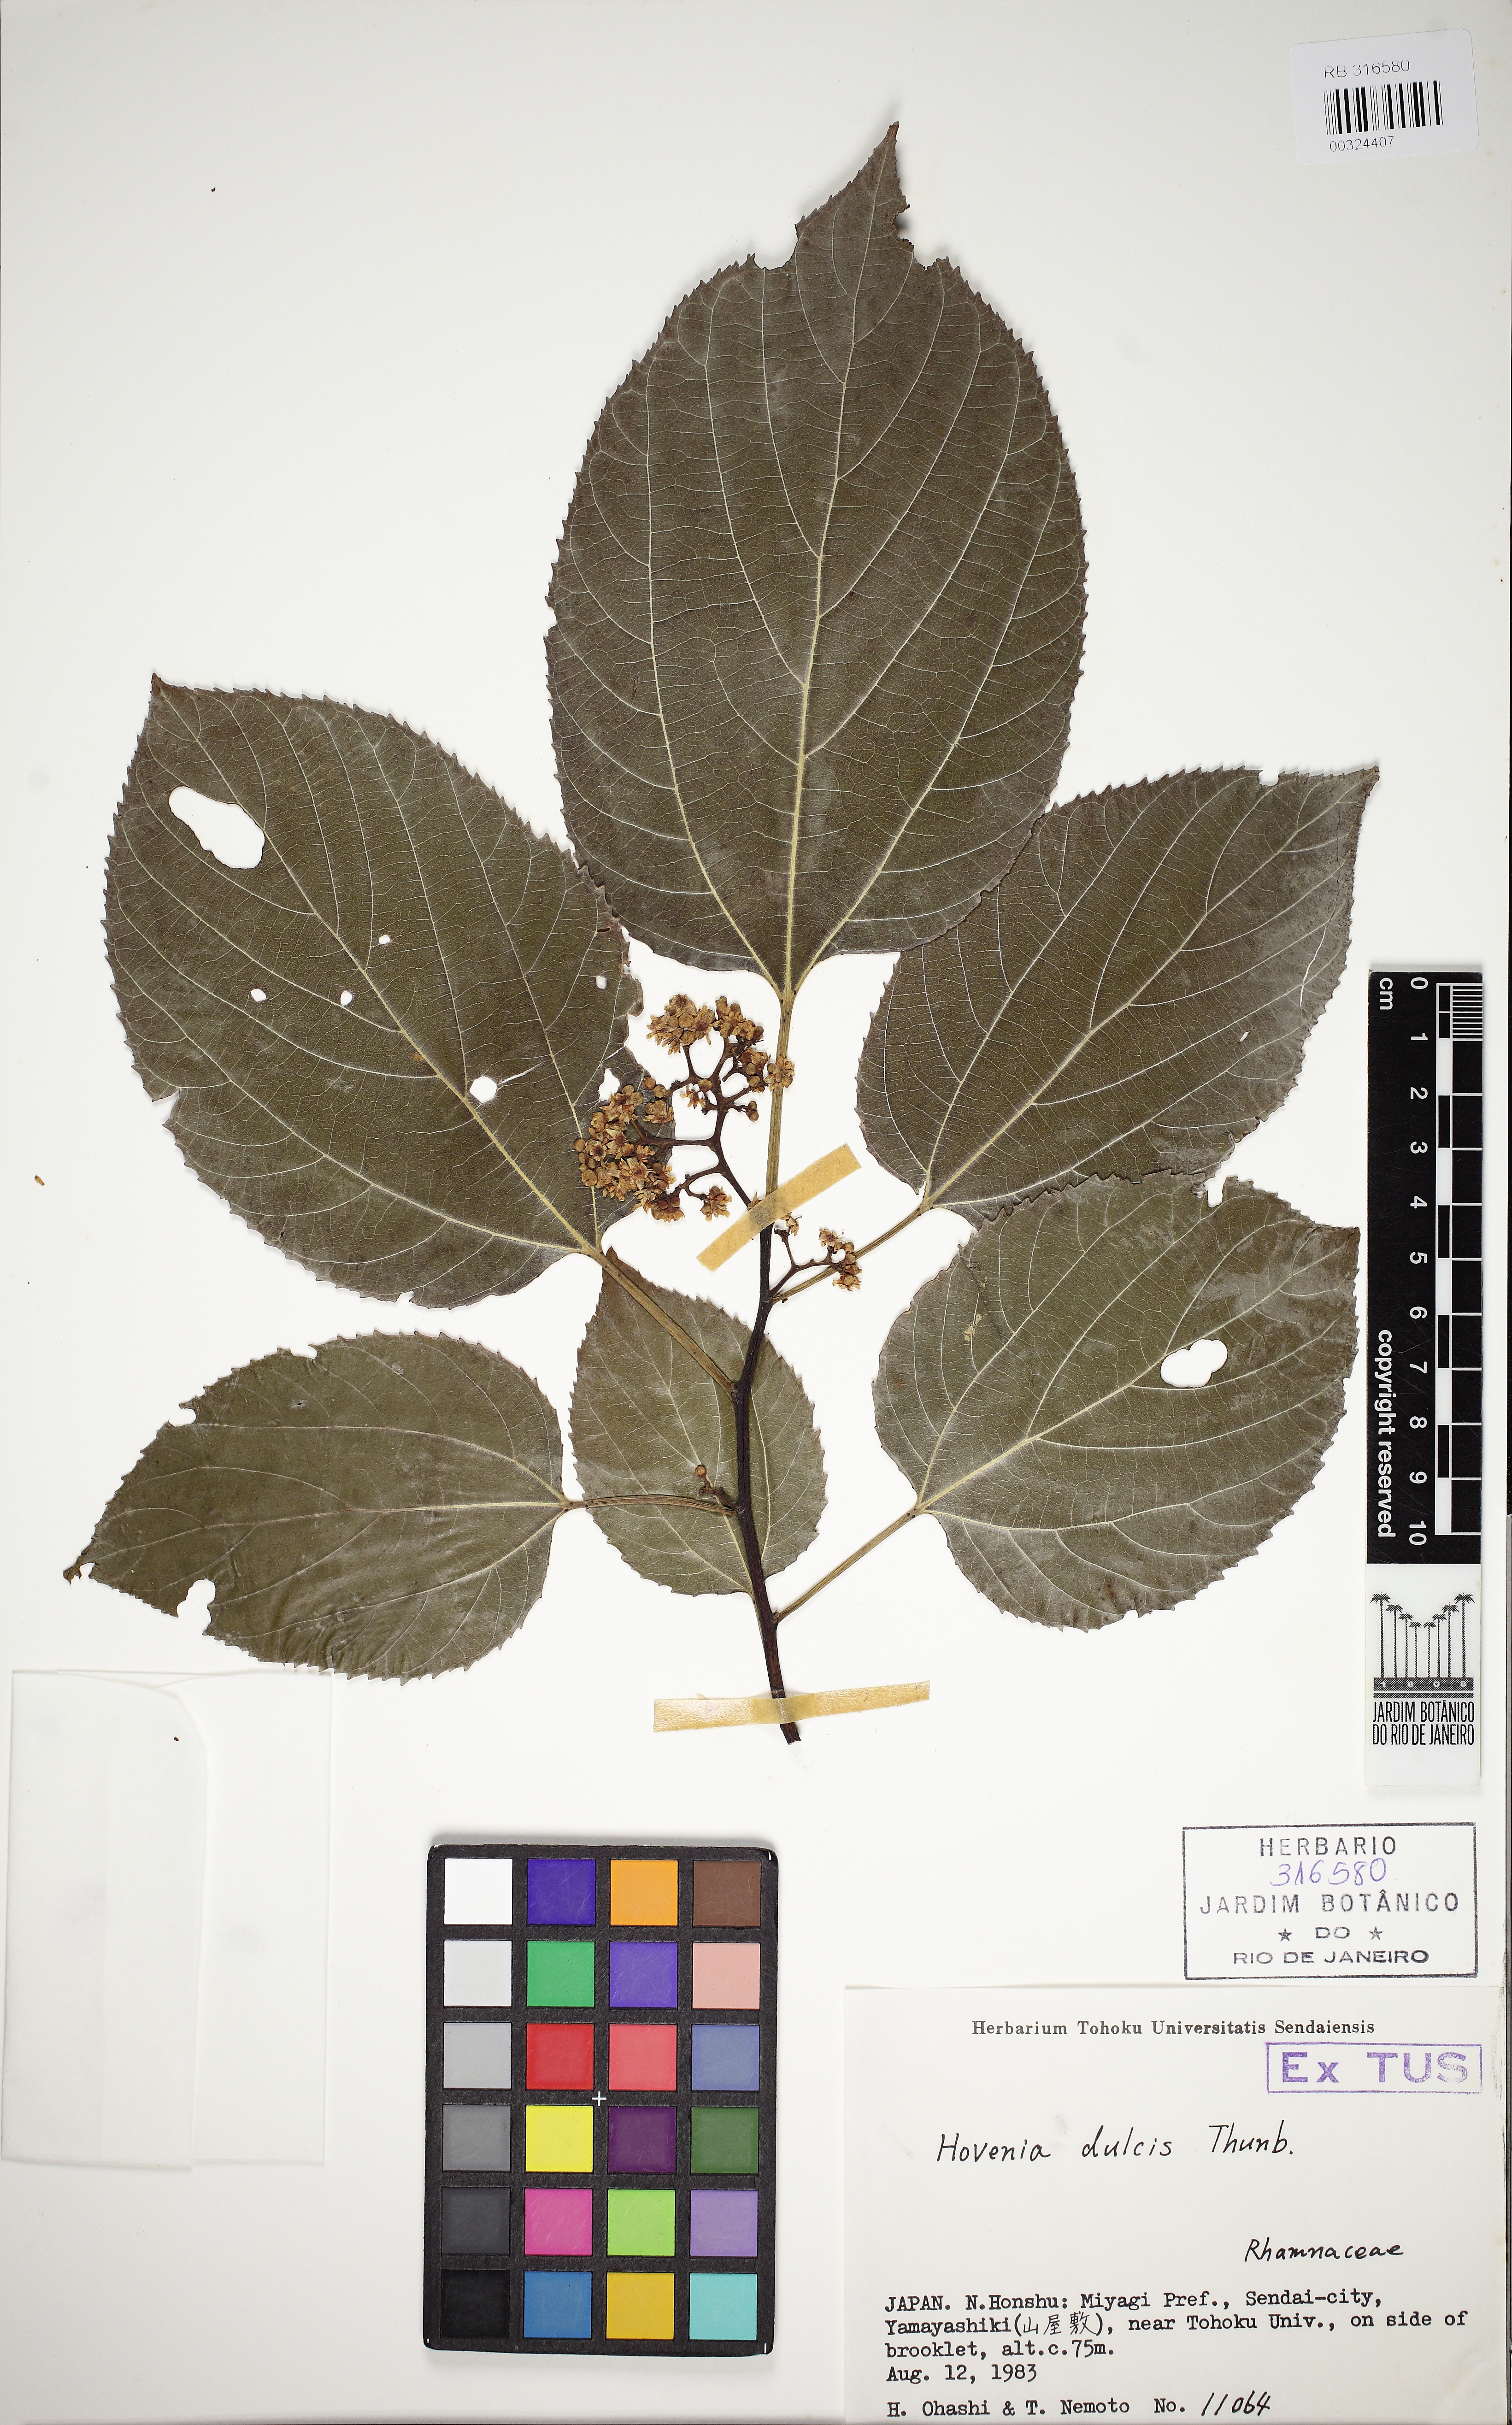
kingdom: Plantae
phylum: Tracheophyta
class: Magnoliopsida
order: Rosales
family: Rhamnaceae
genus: Gouania
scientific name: Gouania
